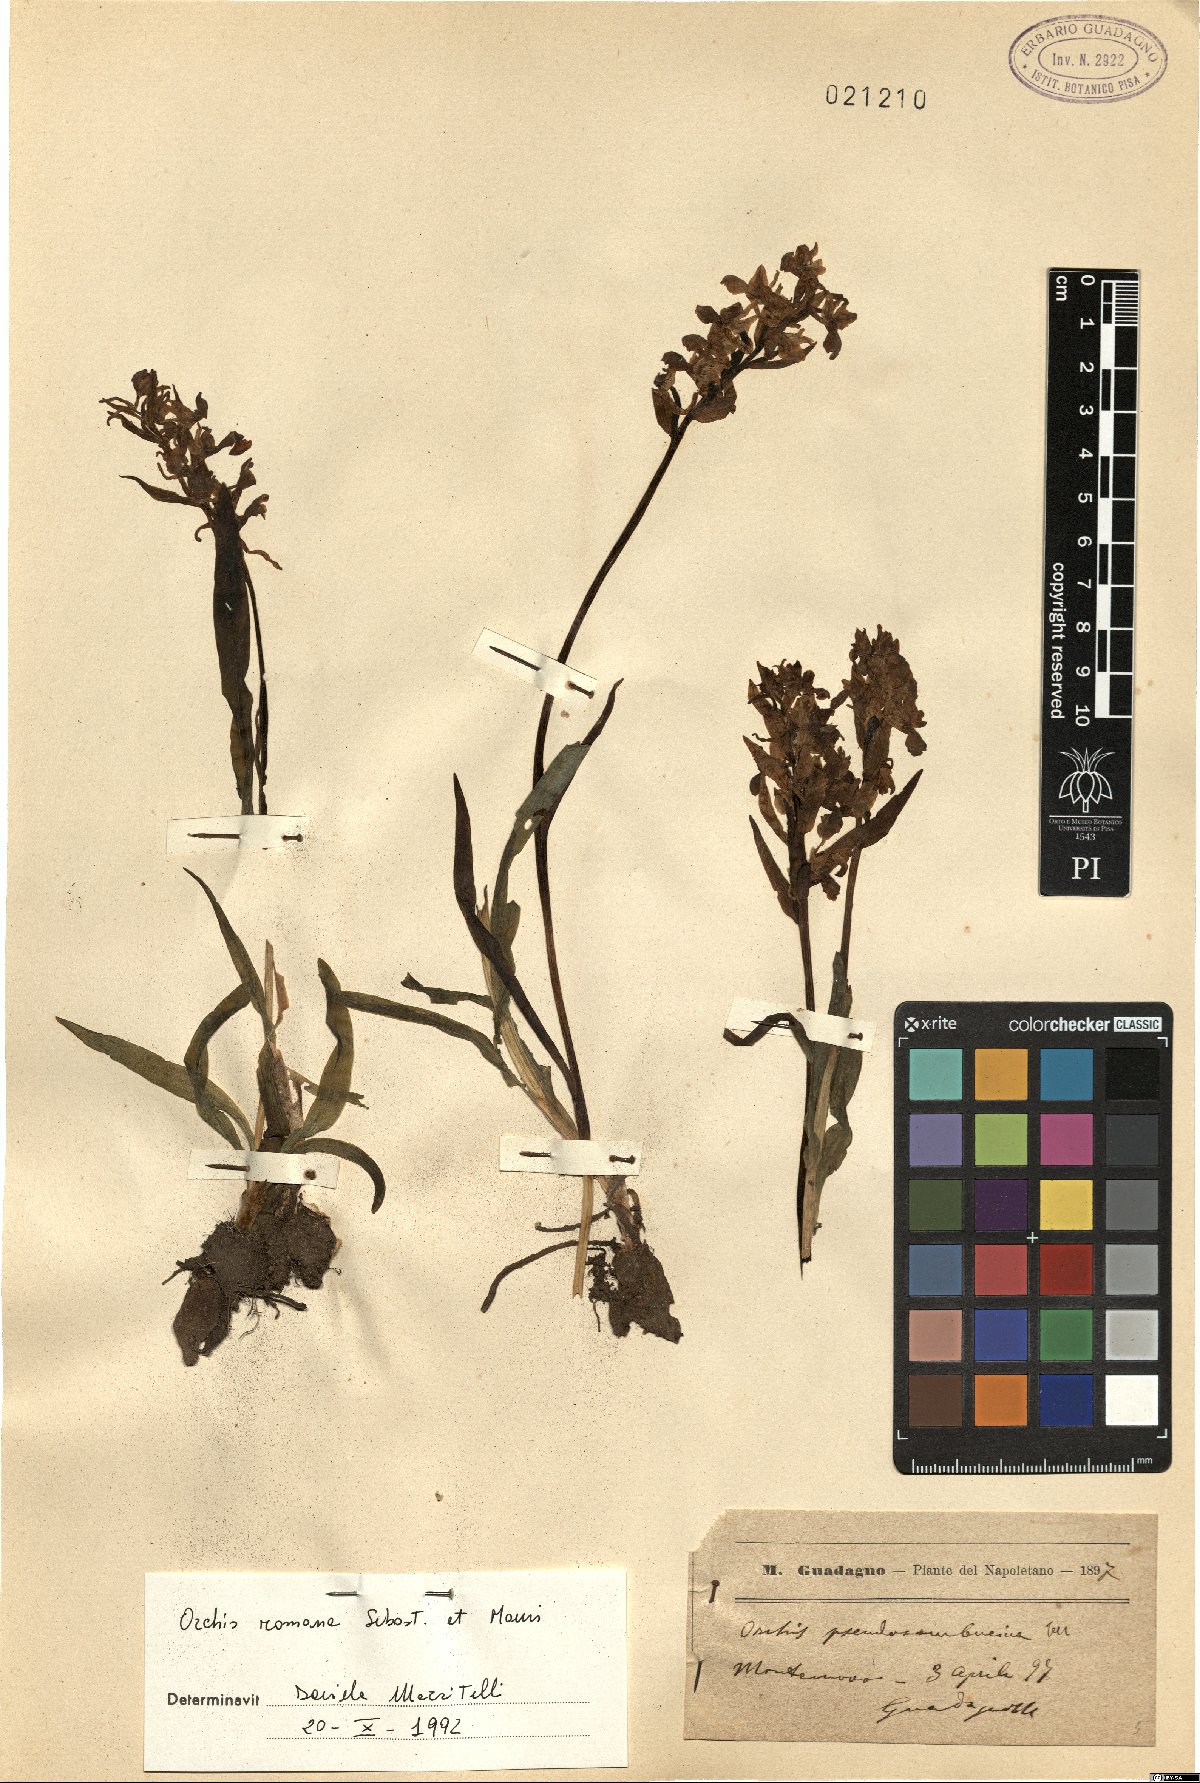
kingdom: Plantae
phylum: Tracheophyta
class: Liliopsida
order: Asparagales
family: Orchidaceae
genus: Dactylorhiza
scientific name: Dactylorhiza romana
